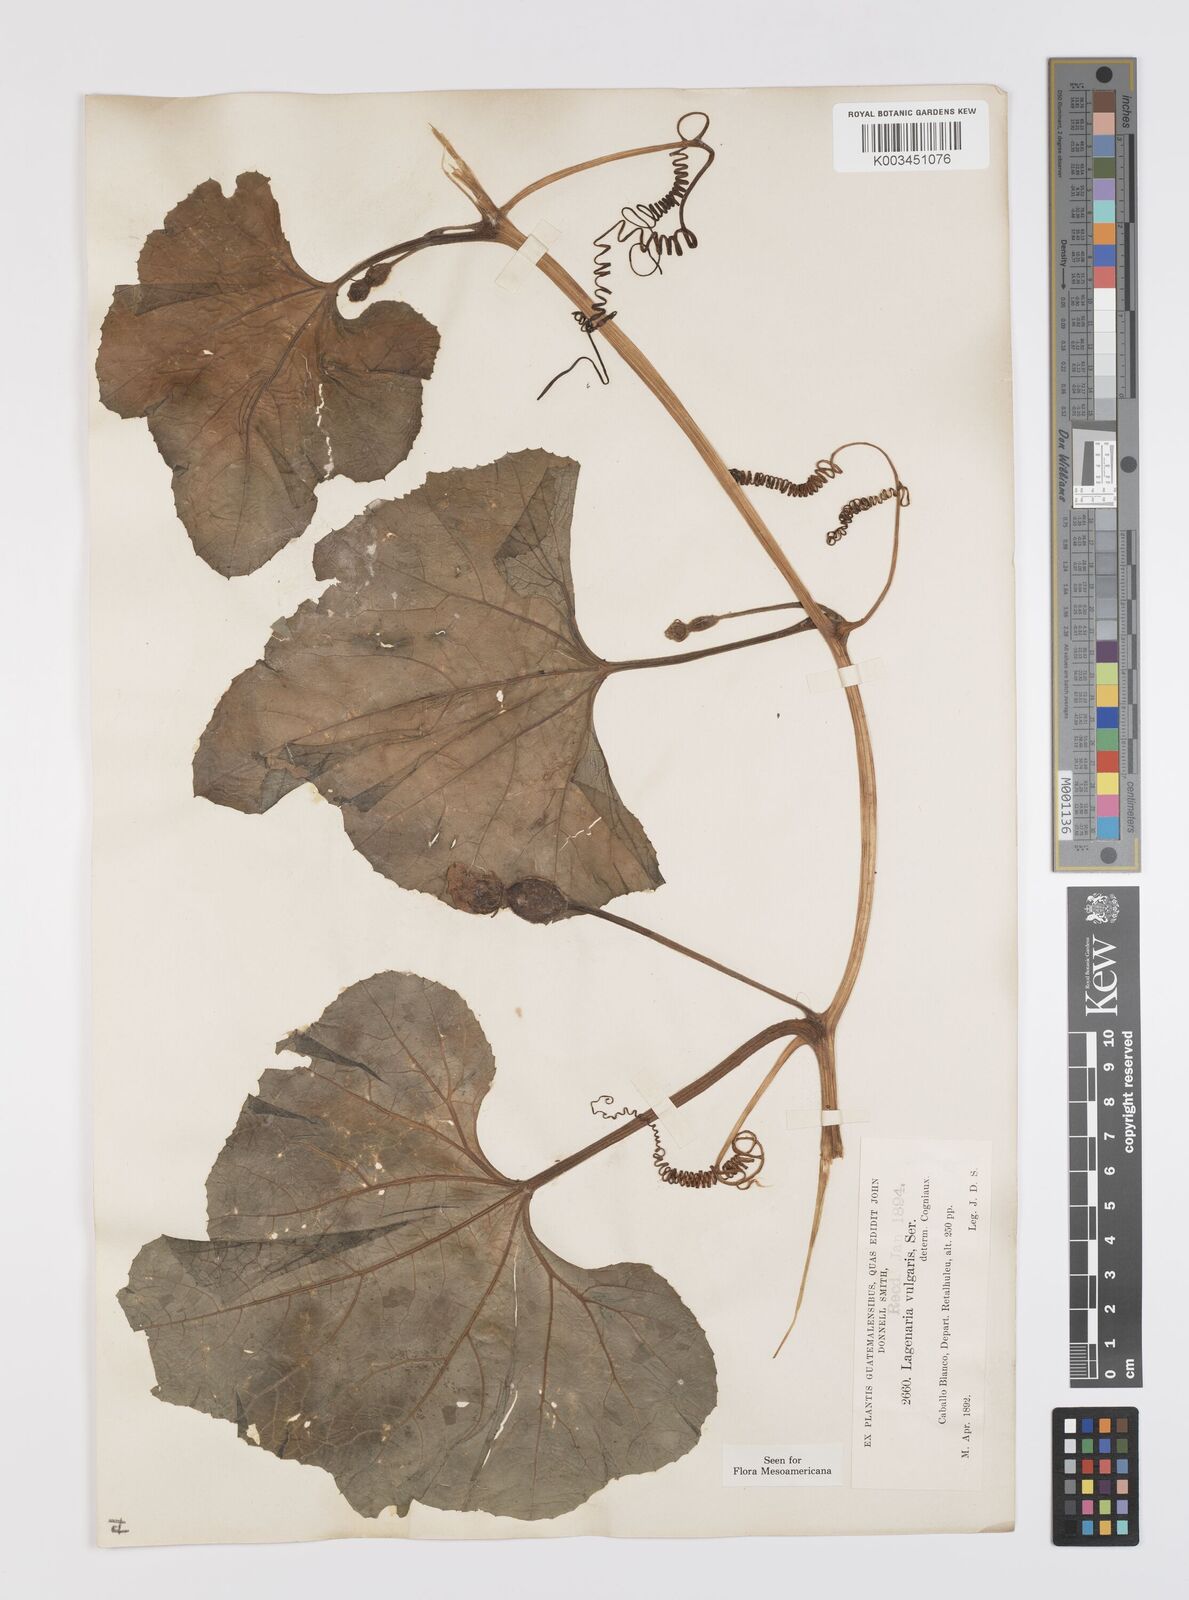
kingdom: Plantae
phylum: Tracheophyta
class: Magnoliopsida
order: Cucurbitales
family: Cucurbitaceae
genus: Lagenaria
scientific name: Lagenaria siceraria
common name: Bottle gourd
